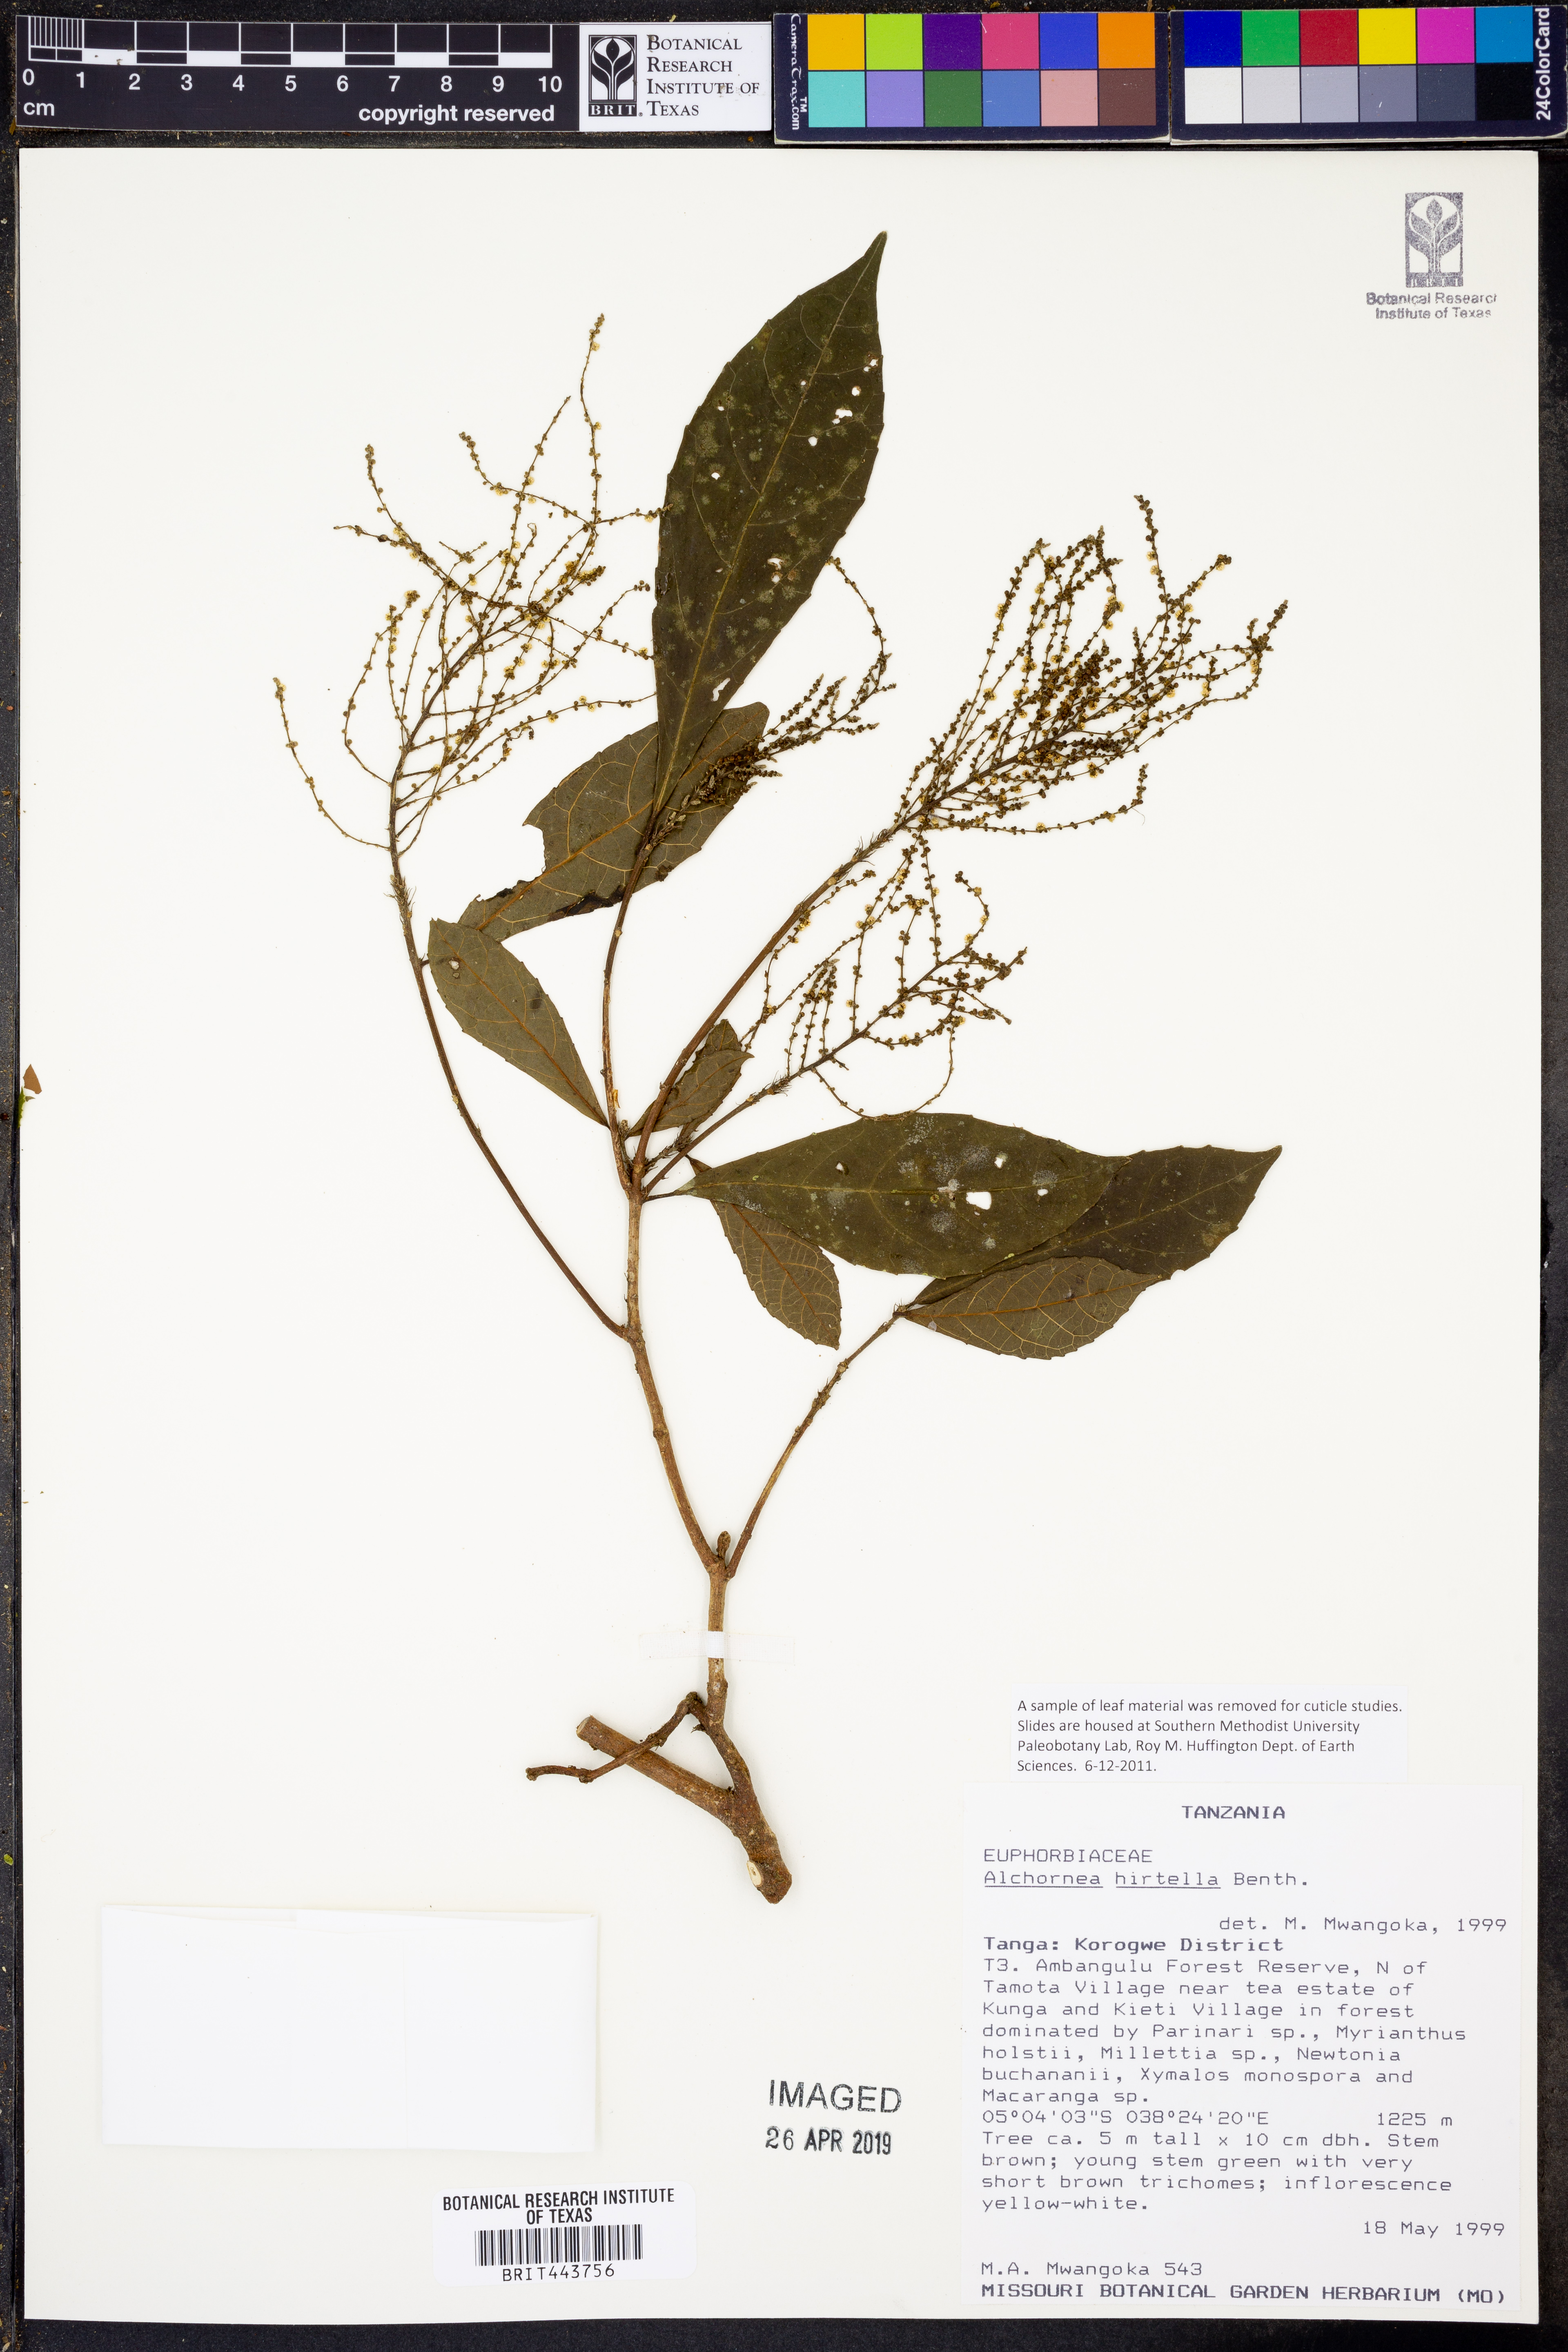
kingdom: Plantae
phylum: Tracheophyta
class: Magnoliopsida
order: Malpighiales
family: Euphorbiaceae
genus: Alchornea
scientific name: Alchornea hirtella
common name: Forest bead-string
